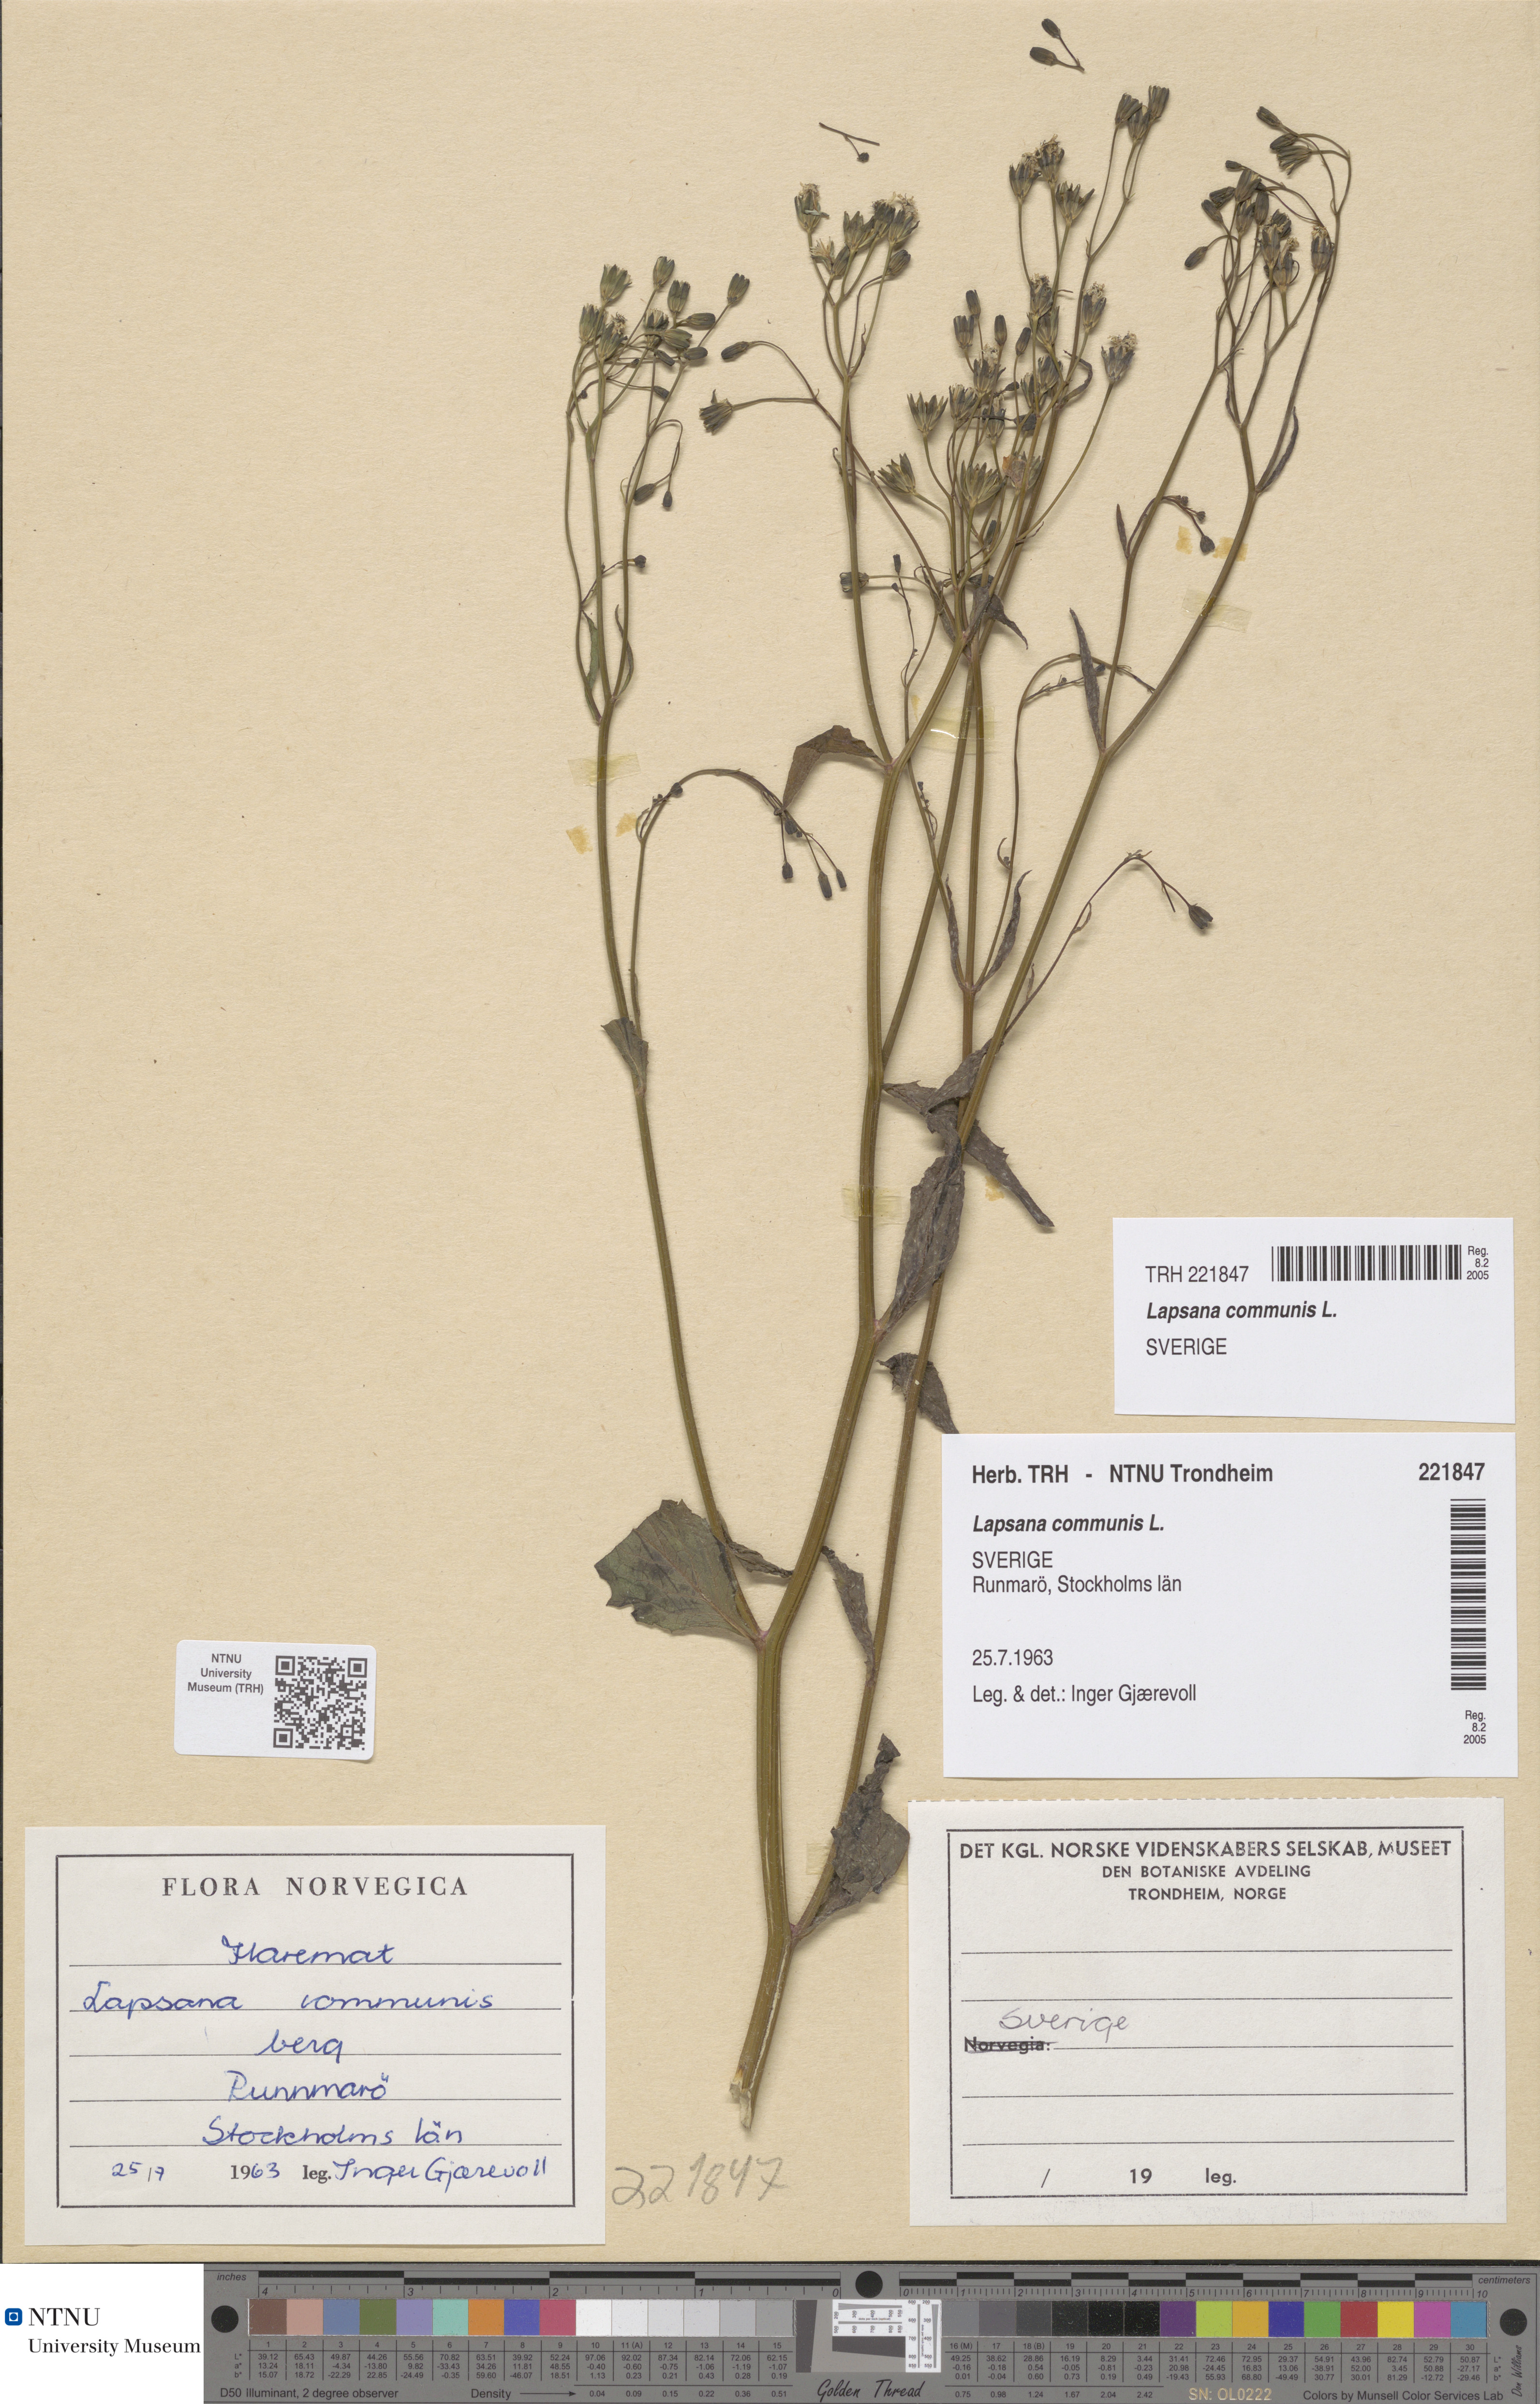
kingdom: Plantae
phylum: Tracheophyta
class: Magnoliopsida
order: Asterales
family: Asteraceae
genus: Lapsana
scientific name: Lapsana communis
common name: Nipplewort
